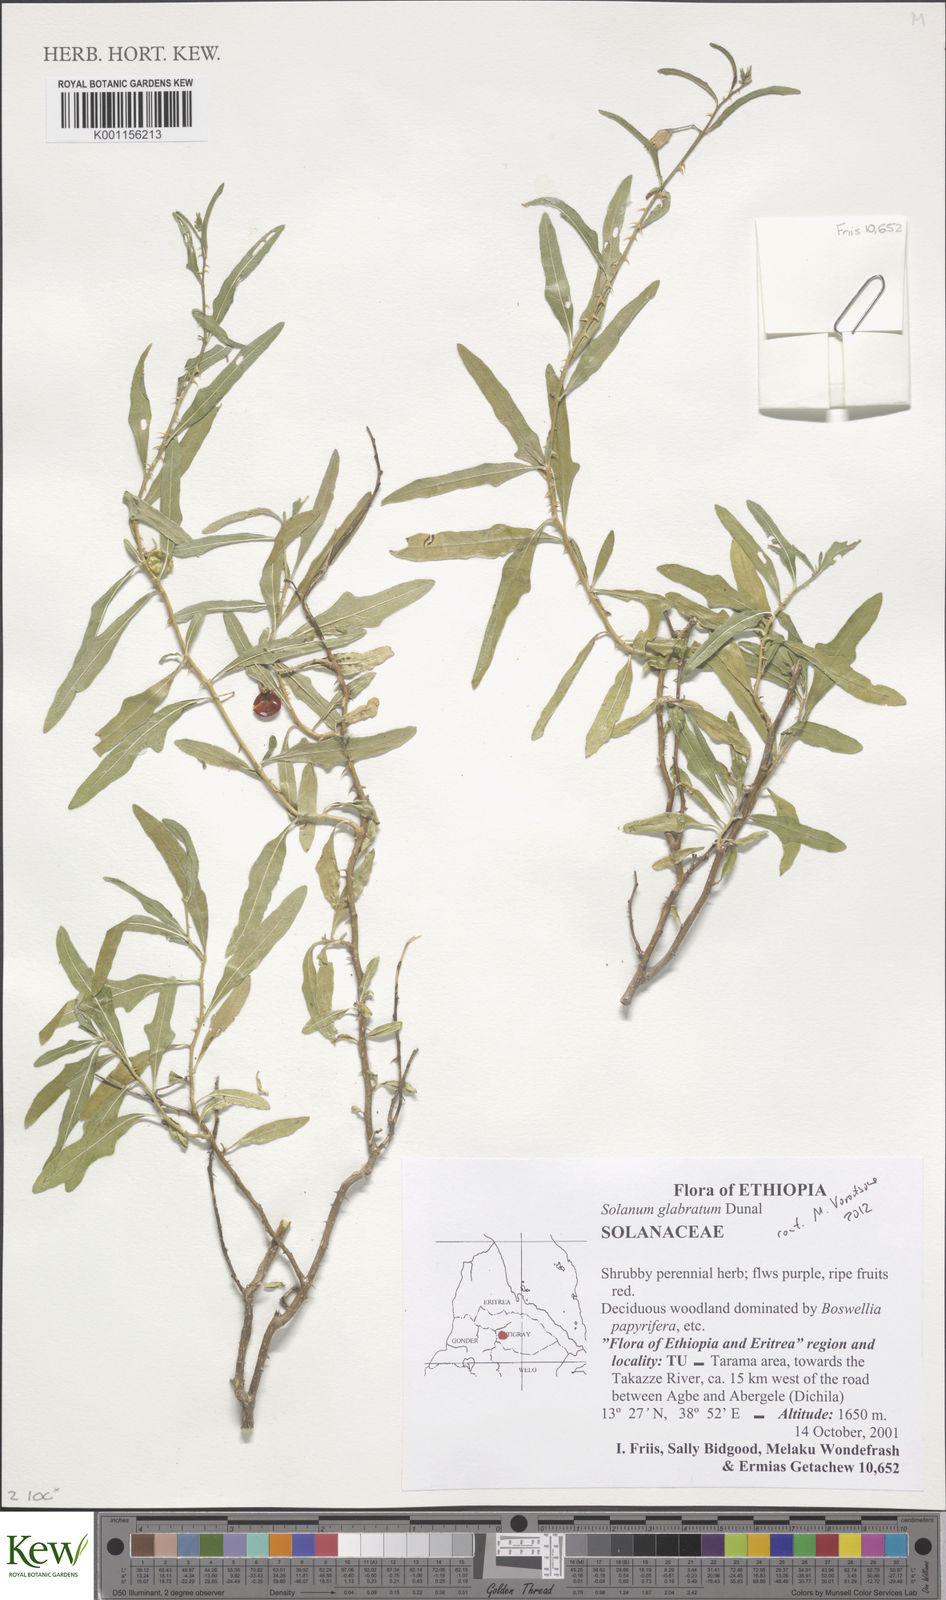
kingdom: Plantae
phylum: Tracheophyta
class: Magnoliopsida
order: Solanales
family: Solanaceae
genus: Solanum
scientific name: Solanum glabratum
